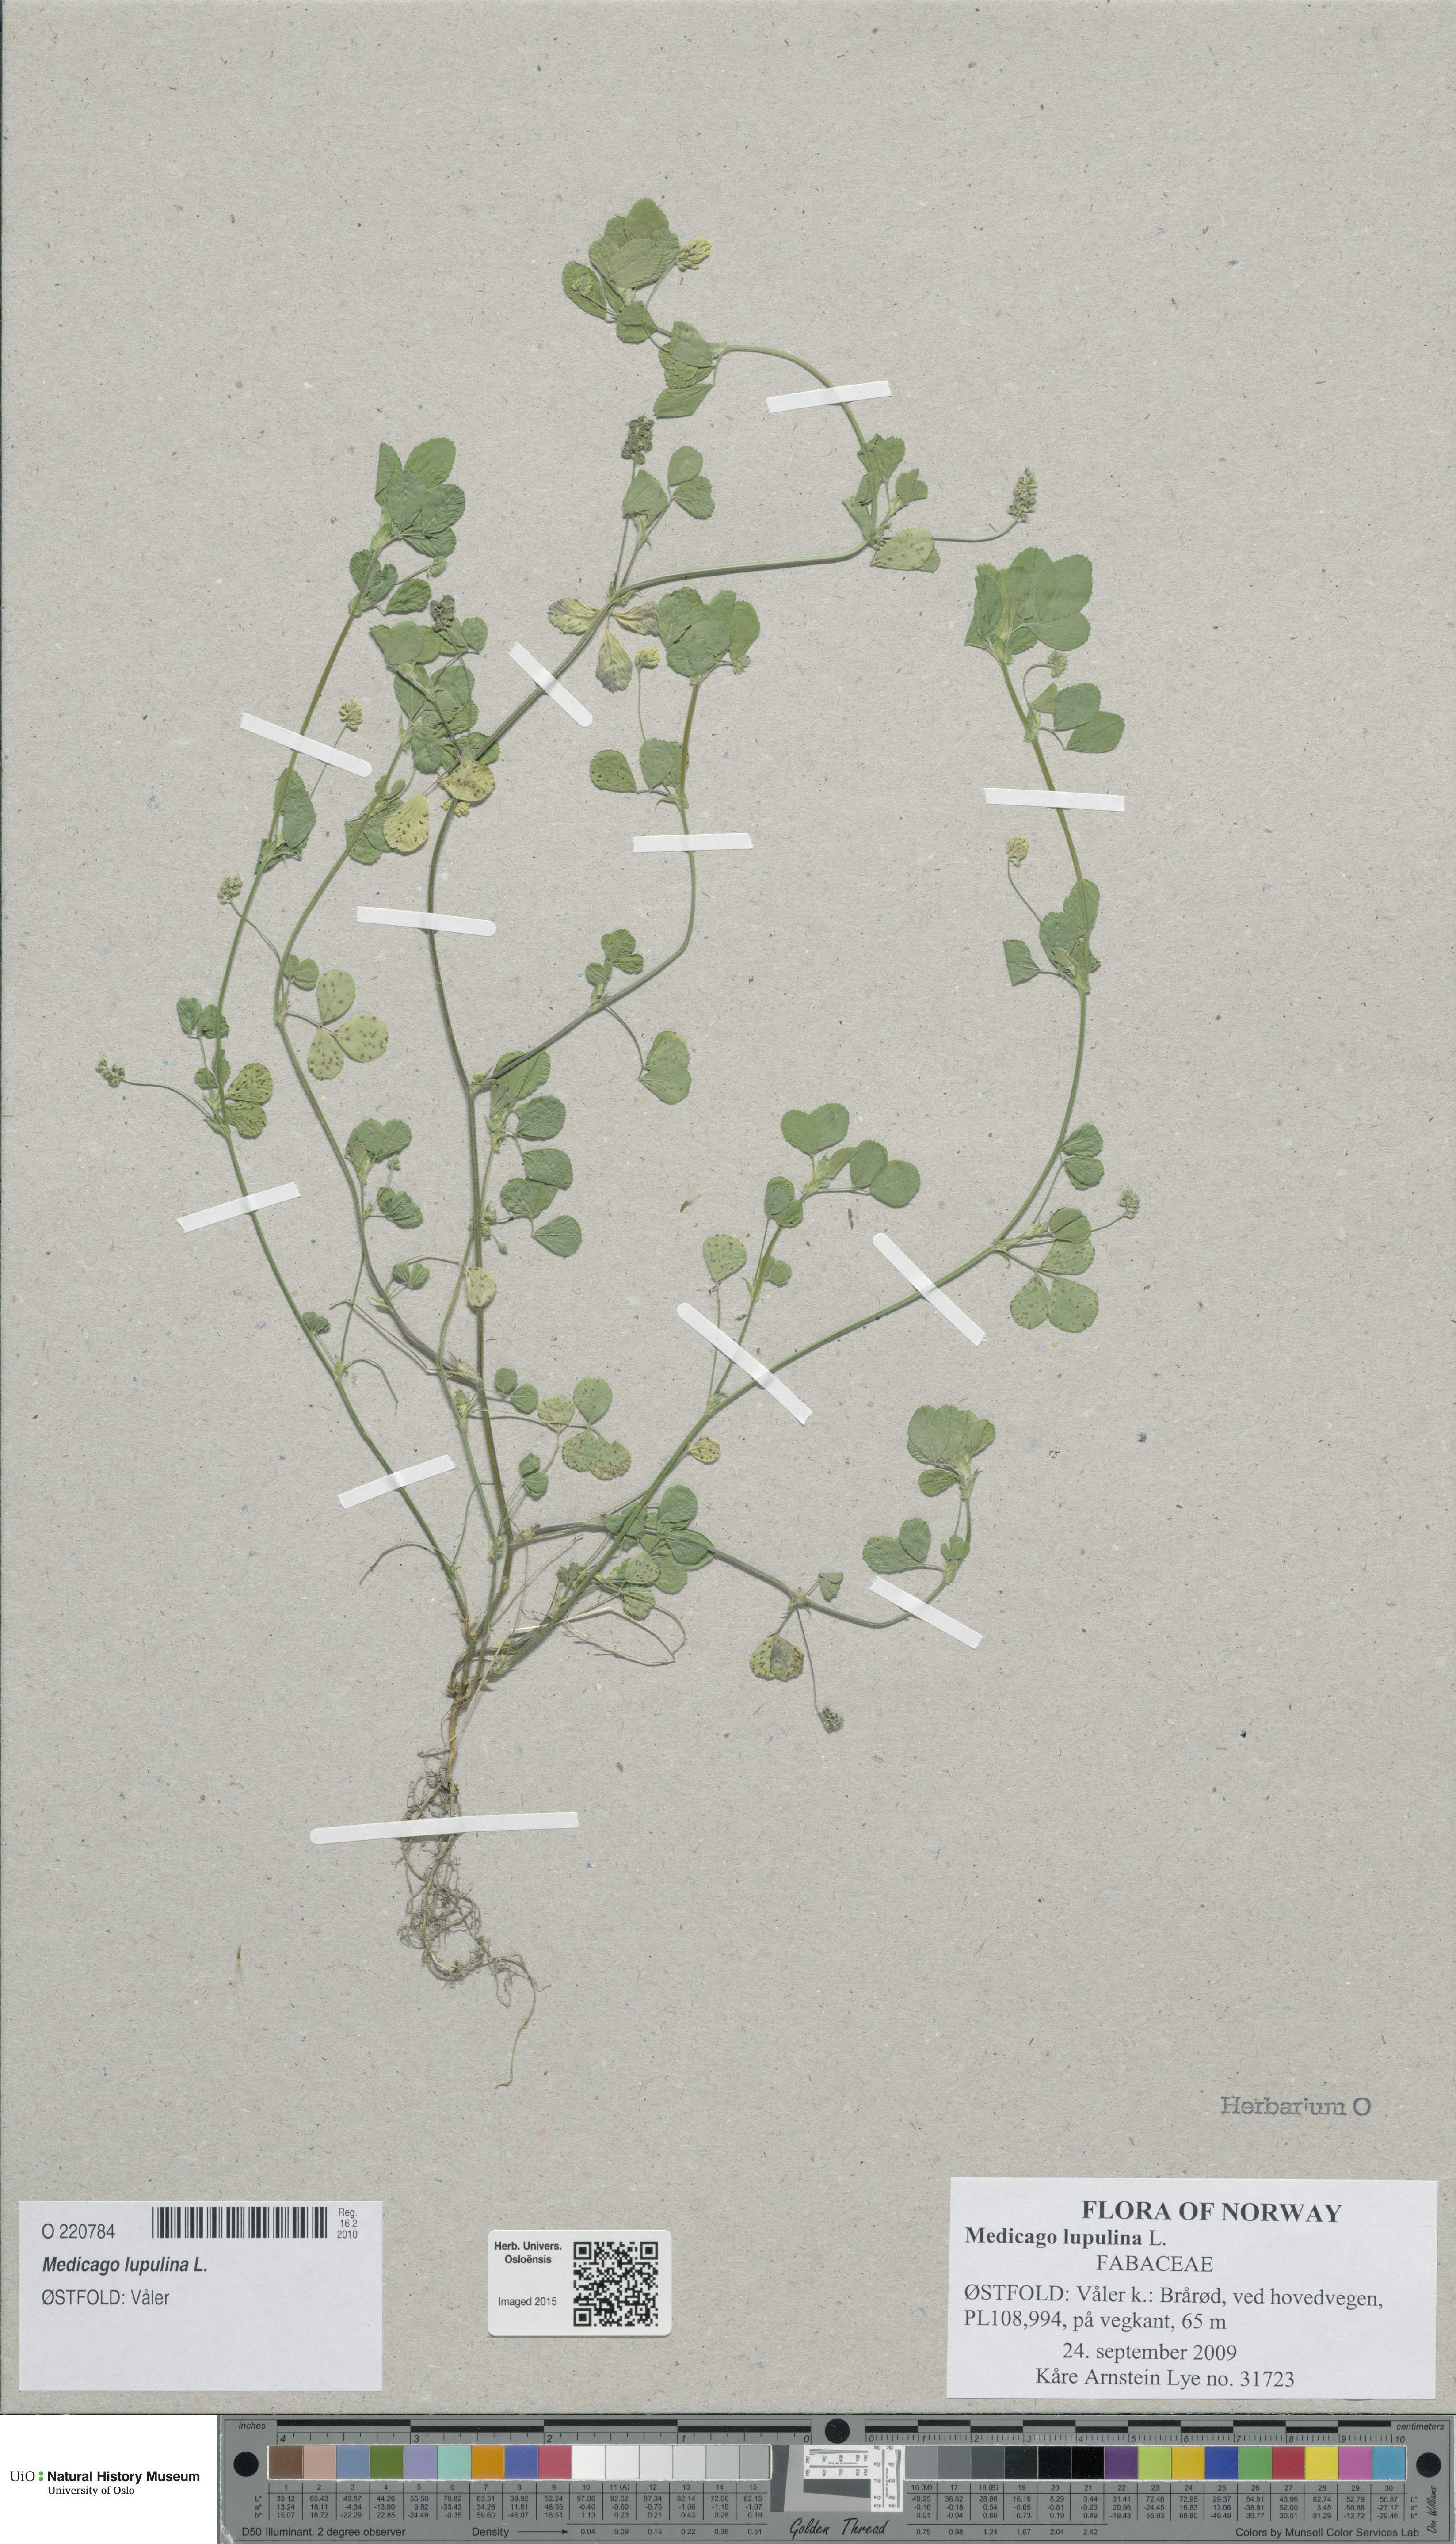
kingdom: Plantae
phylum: Tracheophyta
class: Magnoliopsida
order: Fabales
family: Fabaceae
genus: Medicago
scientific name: Medicago lupulina
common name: Black medick
